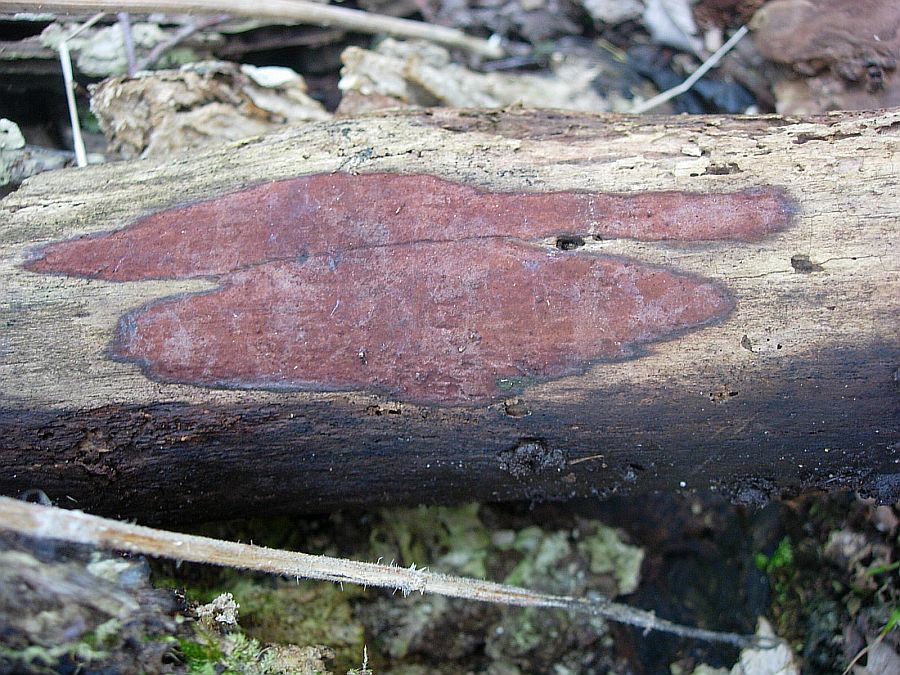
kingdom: Fungi
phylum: Ascomycota
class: Sordariomycetes
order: Xylariales
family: Hypoxylaceae
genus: Hypoxylon
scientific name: Hypoxylon macrocarpum
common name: skorpe-kulbær
